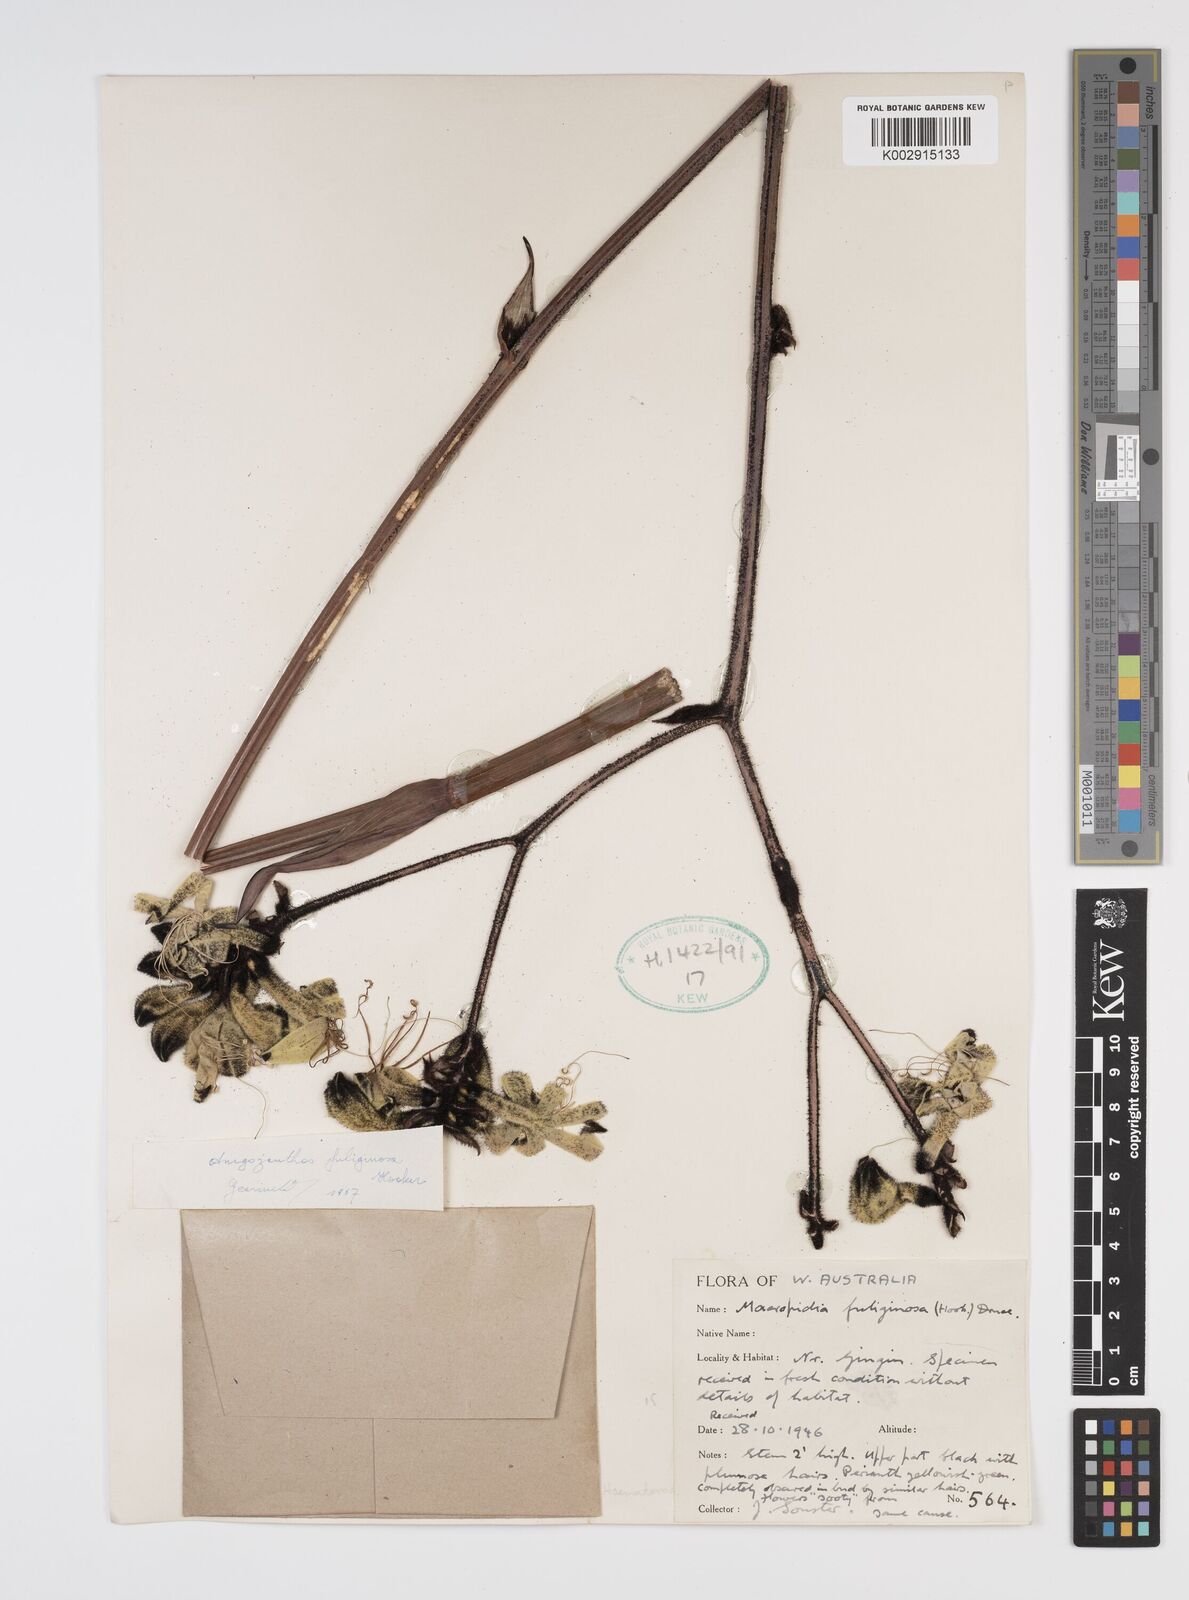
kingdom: Plantae
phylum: Tracheophyta
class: Liliopsida
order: Commelinales
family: Haemodoraceae
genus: Macropidia
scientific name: Macropidia fuliginosa
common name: Black kangaroo-paw
